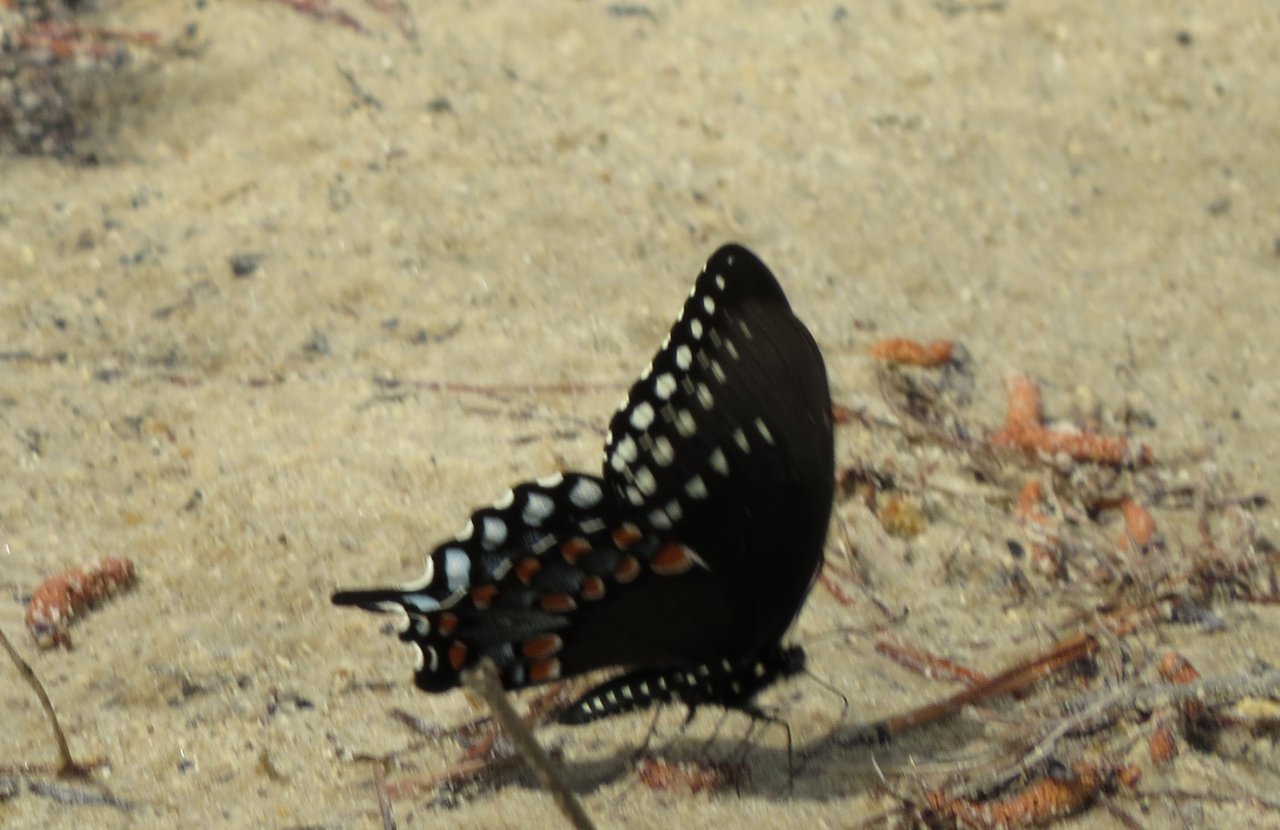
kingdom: Animalia
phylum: Arthropoda
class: Insecta
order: Lepidoptera
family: Papilionidae
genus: Pterourus
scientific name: Pterourus troilus
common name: Spicebush Swallowtail
